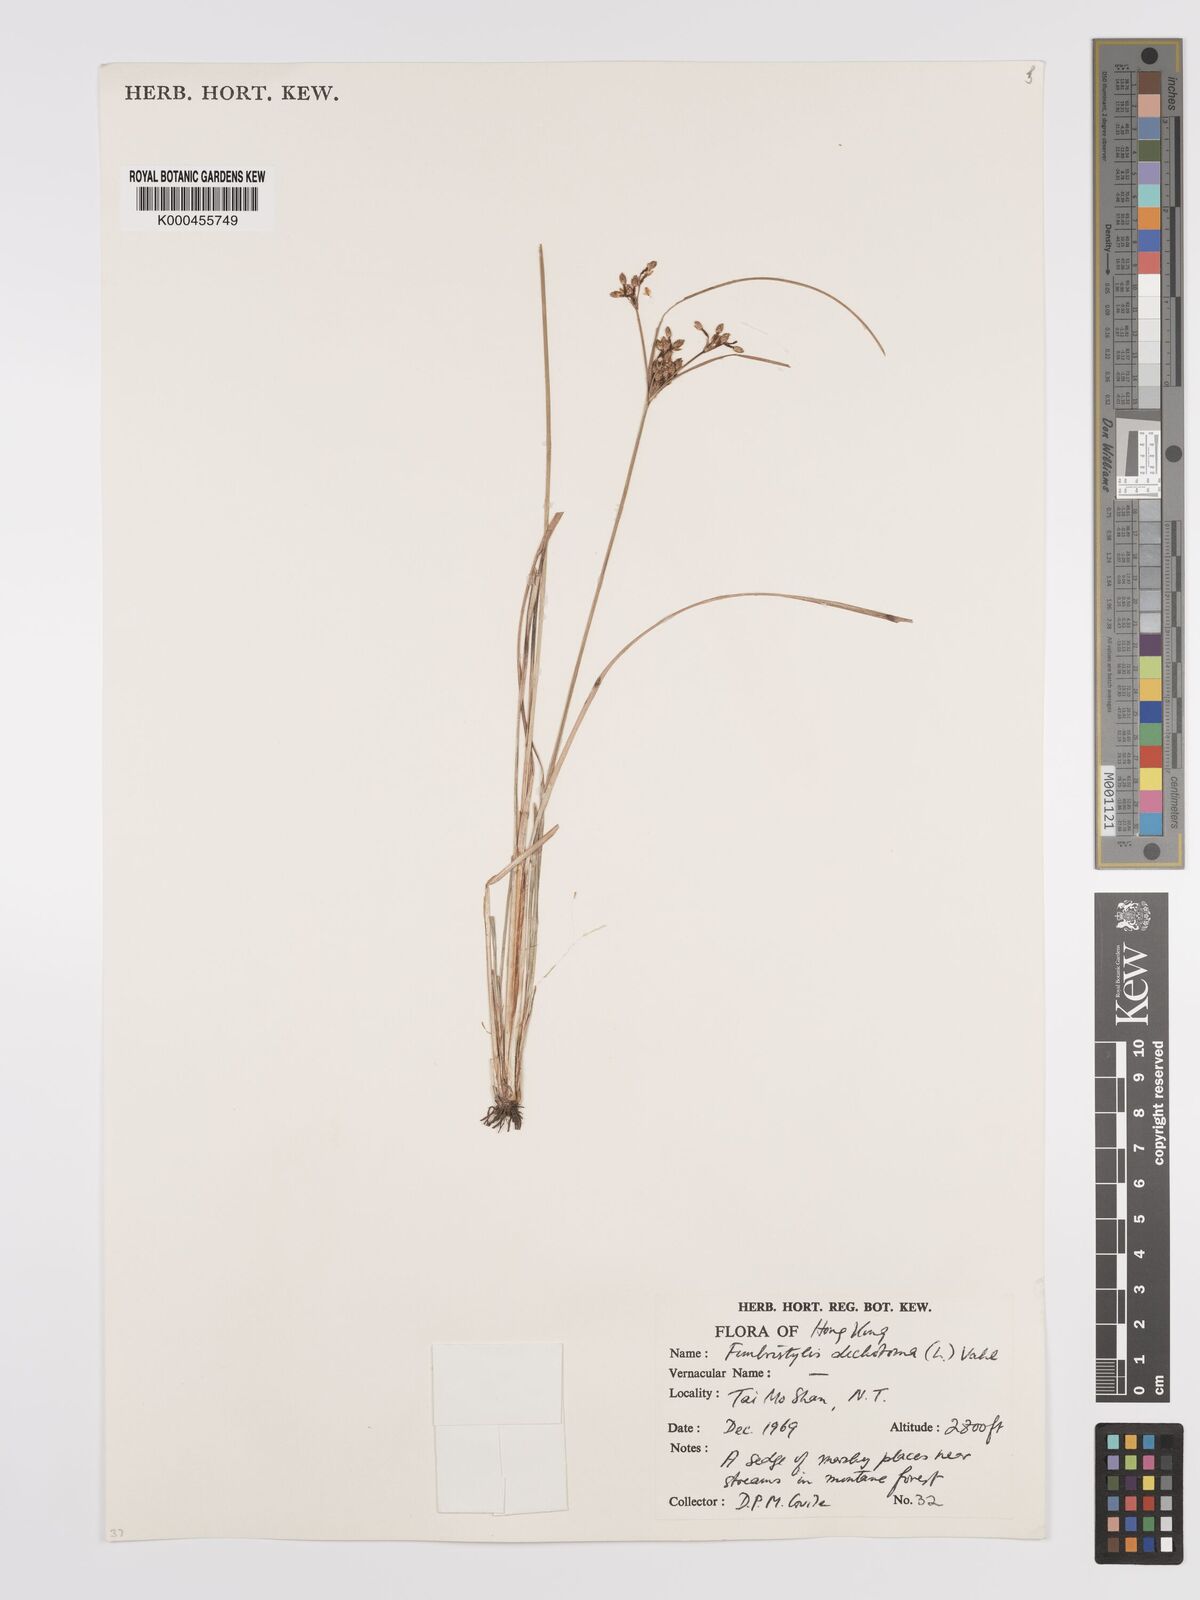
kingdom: Plantae
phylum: Tracheophyta
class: Liliopsida
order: Poales
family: Cyperaceae
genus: Fimbristylis
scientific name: Fimbristylis dichotoma
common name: Forked fimbry
